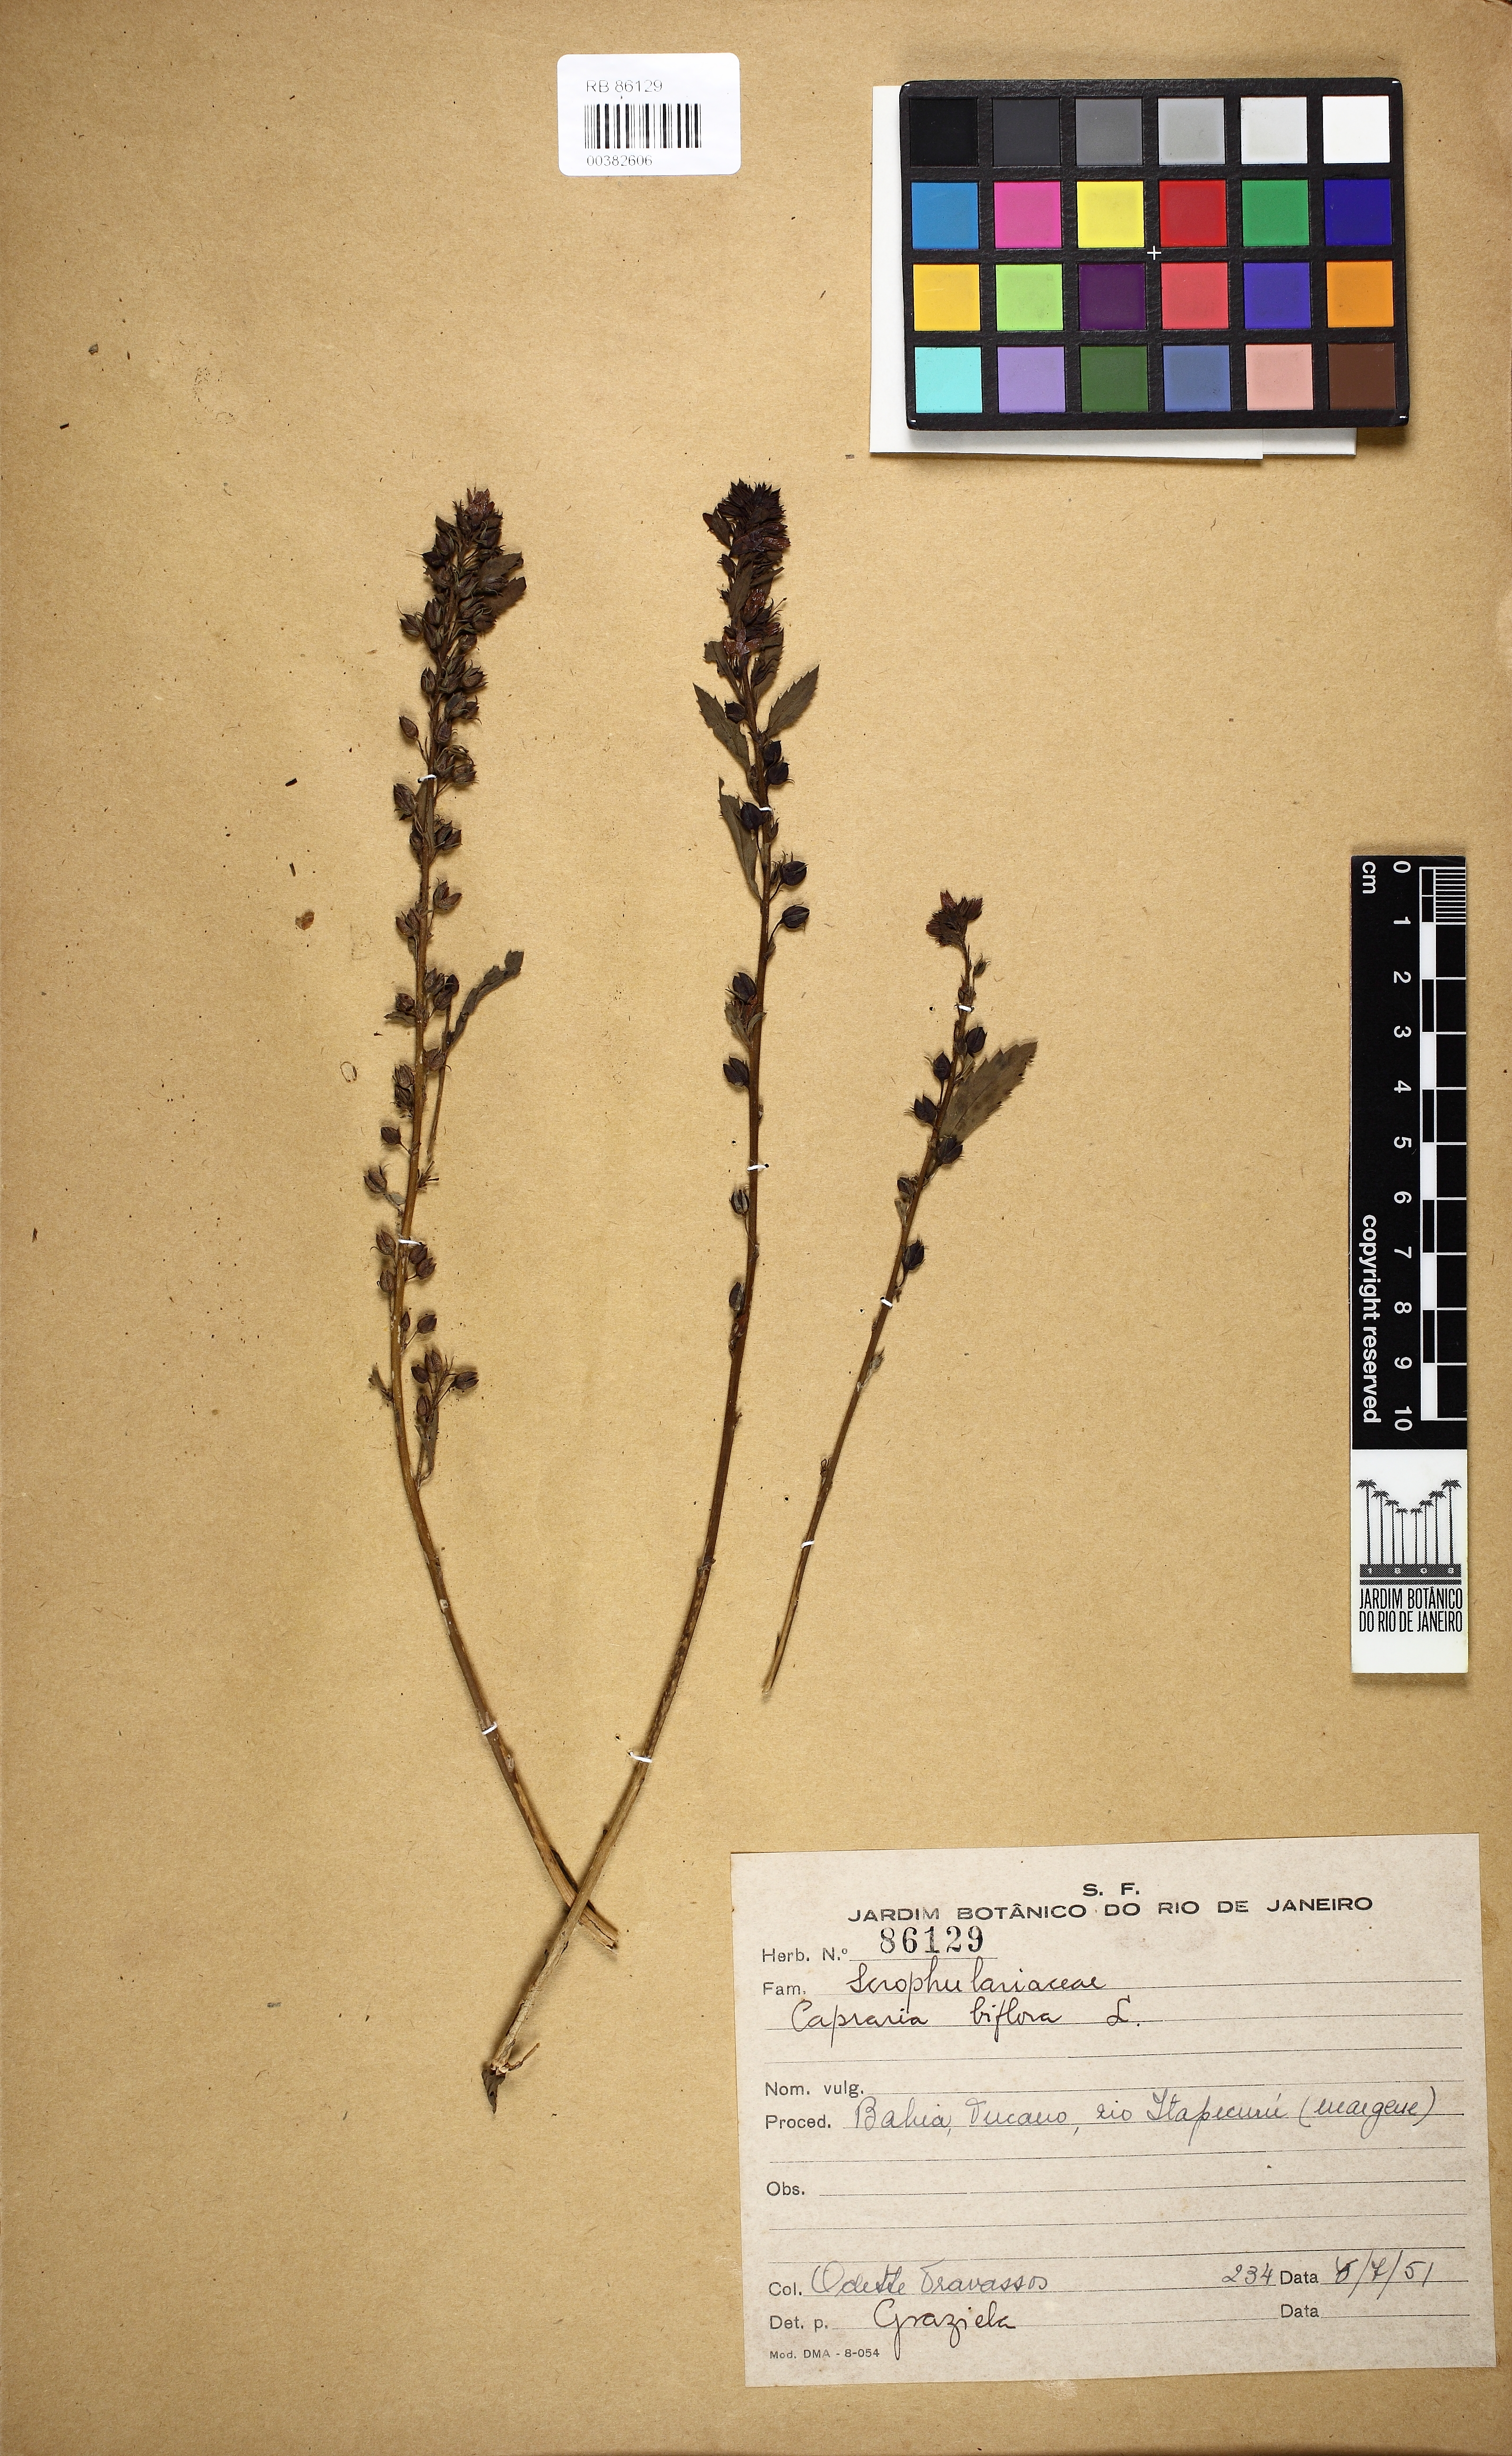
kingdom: Plantae
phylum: Tracheophyta
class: Magnoliopsida
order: Lamiales
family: Scrophulariaceae
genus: Capraria
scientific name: Capraria biflora
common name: Goatweed
